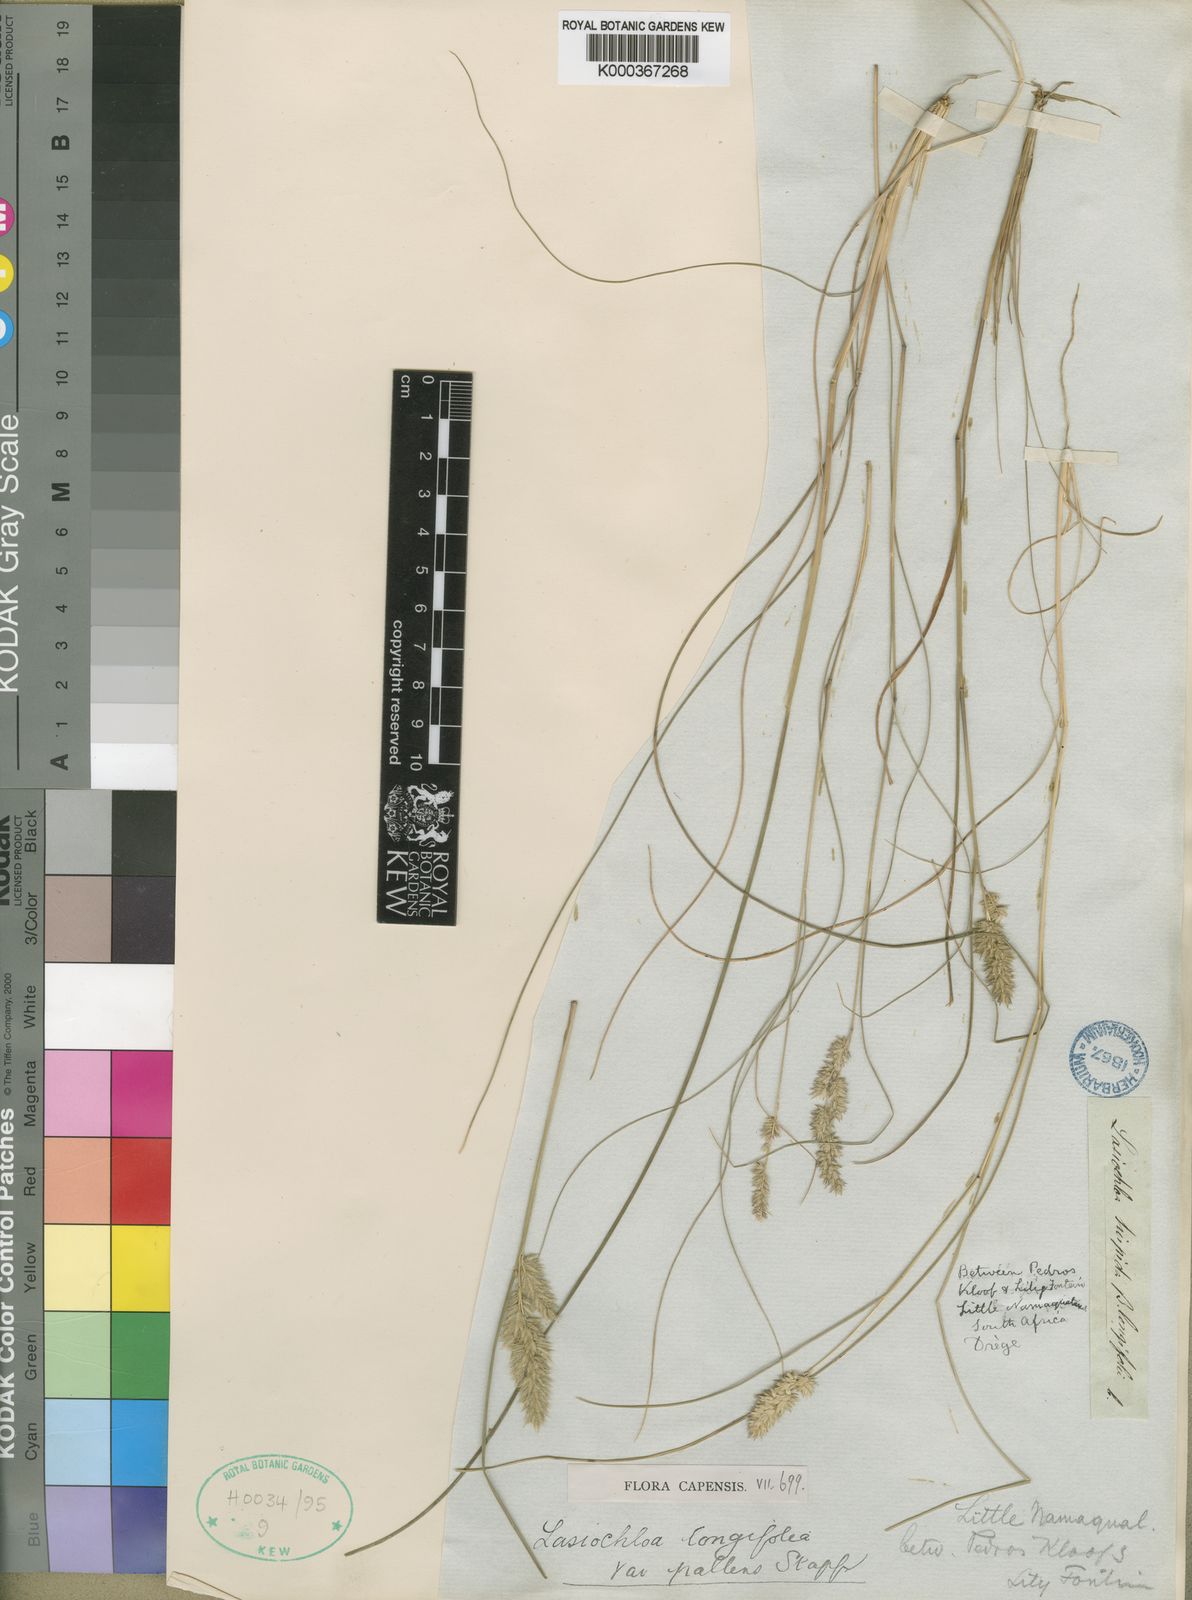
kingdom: Plantae
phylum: Tracheophyta
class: Liliopsida
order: Poales
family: Poaceae
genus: Tribolium
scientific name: Tribolium hispidum
